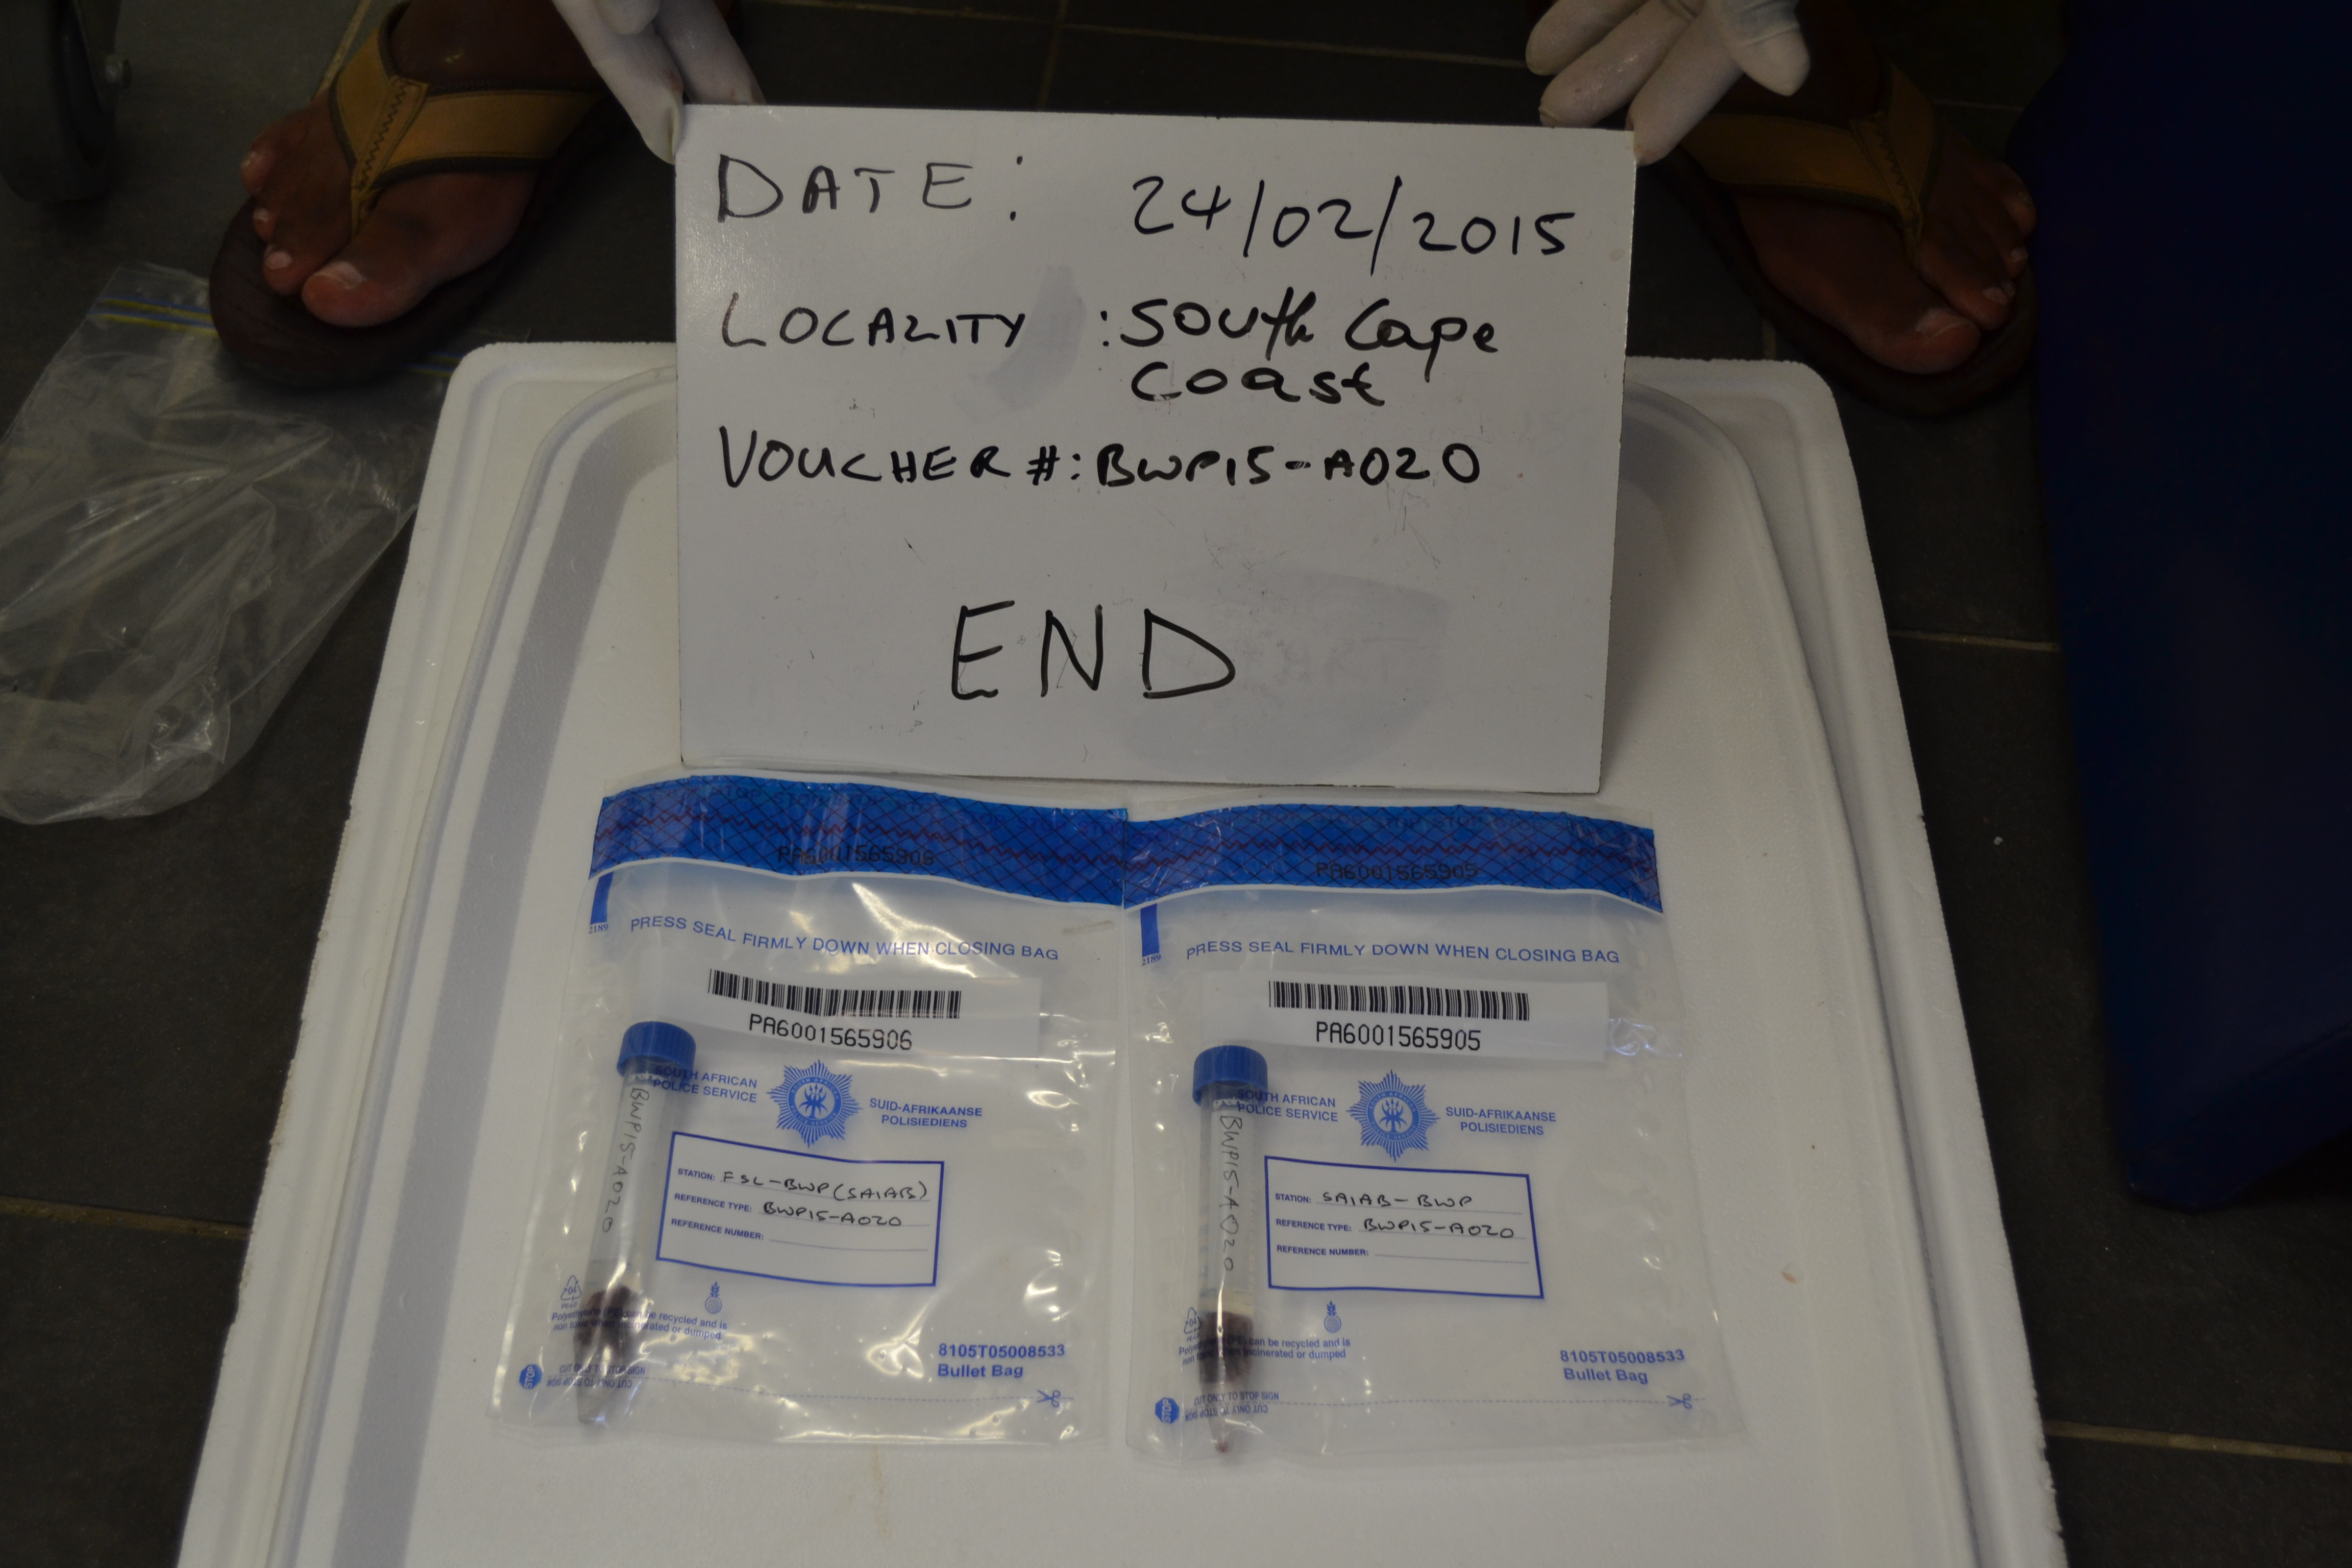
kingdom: Animalia
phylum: Chordata
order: Perciformes
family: Serranidae
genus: Epinephelus
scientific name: Epinephelus marginatus
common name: Dusky grouper
